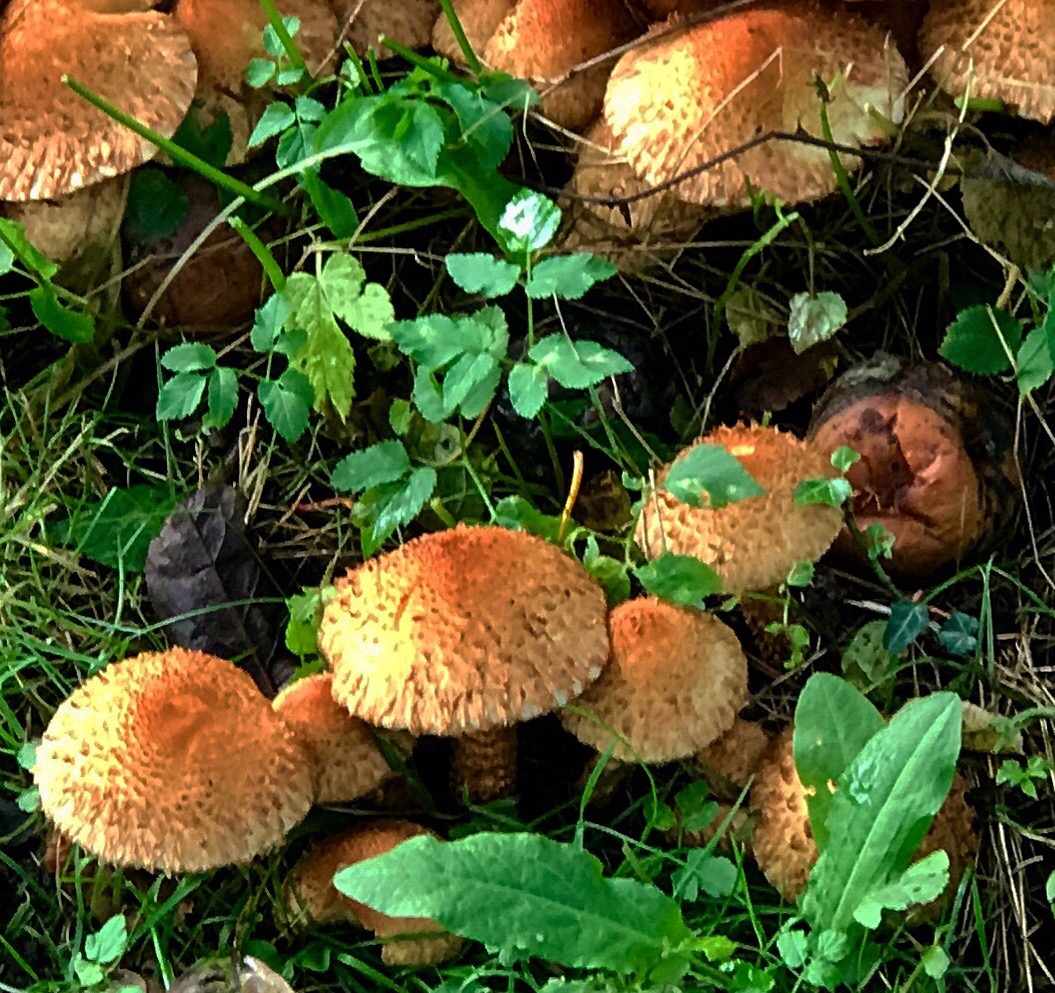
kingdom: Fungi
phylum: Basidiomycota
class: Agaricomycetes
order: Agaricales
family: Strophariaceae
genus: Pholiota
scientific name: Pholiota squarrosa
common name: krumskællet skælhat
